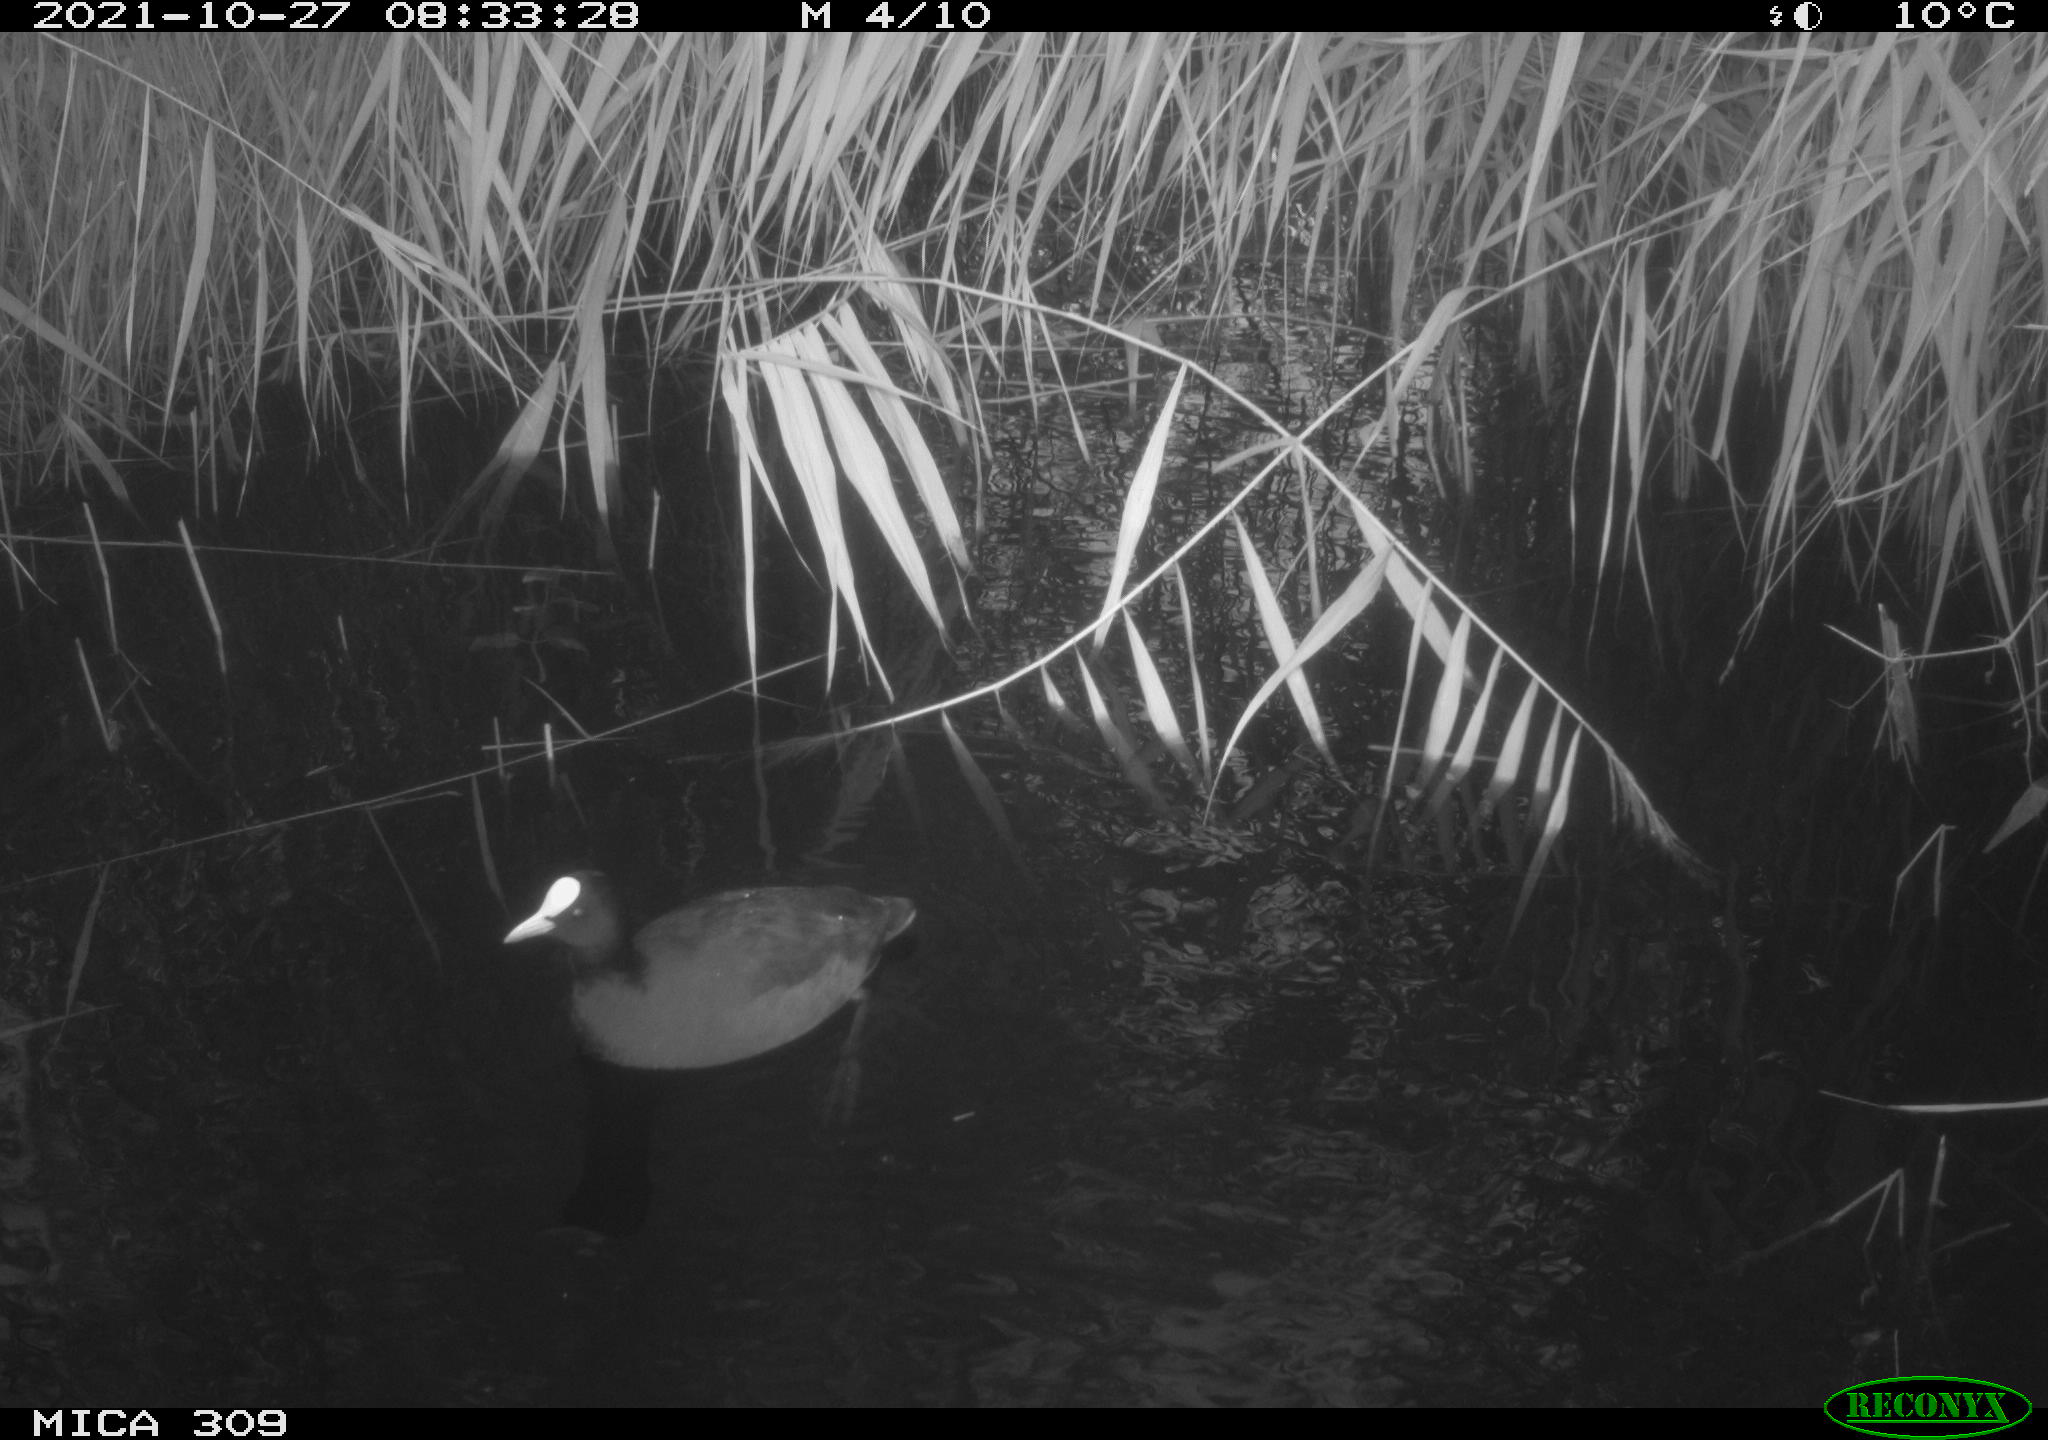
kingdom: Animalia
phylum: Chordata
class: Aves
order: Gruiformes
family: Rallidae
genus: Fulica
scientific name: Fulica atra
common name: Eurasian coot
